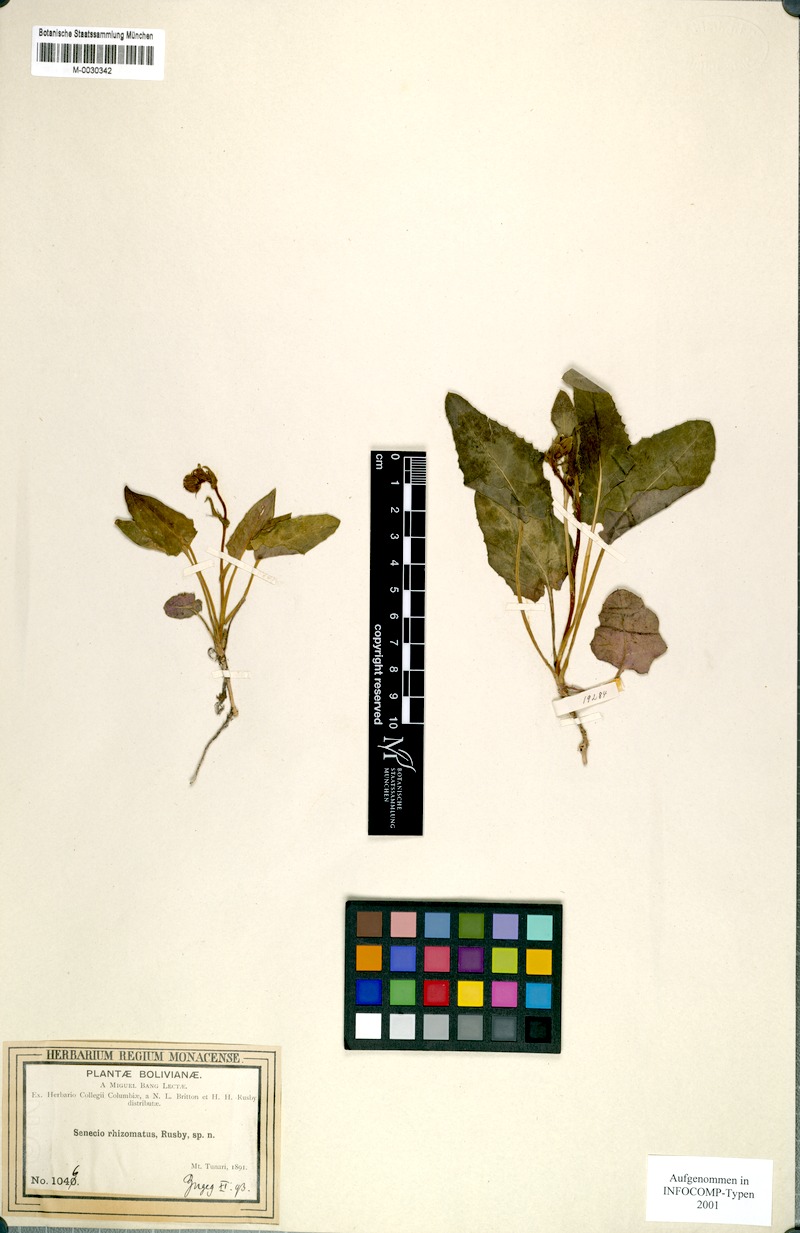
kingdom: Plantae
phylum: Tracheophyta
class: Magnoliopsida
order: Asterales
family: Asteraceae
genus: Senecio
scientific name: Senecio rhizomatus
